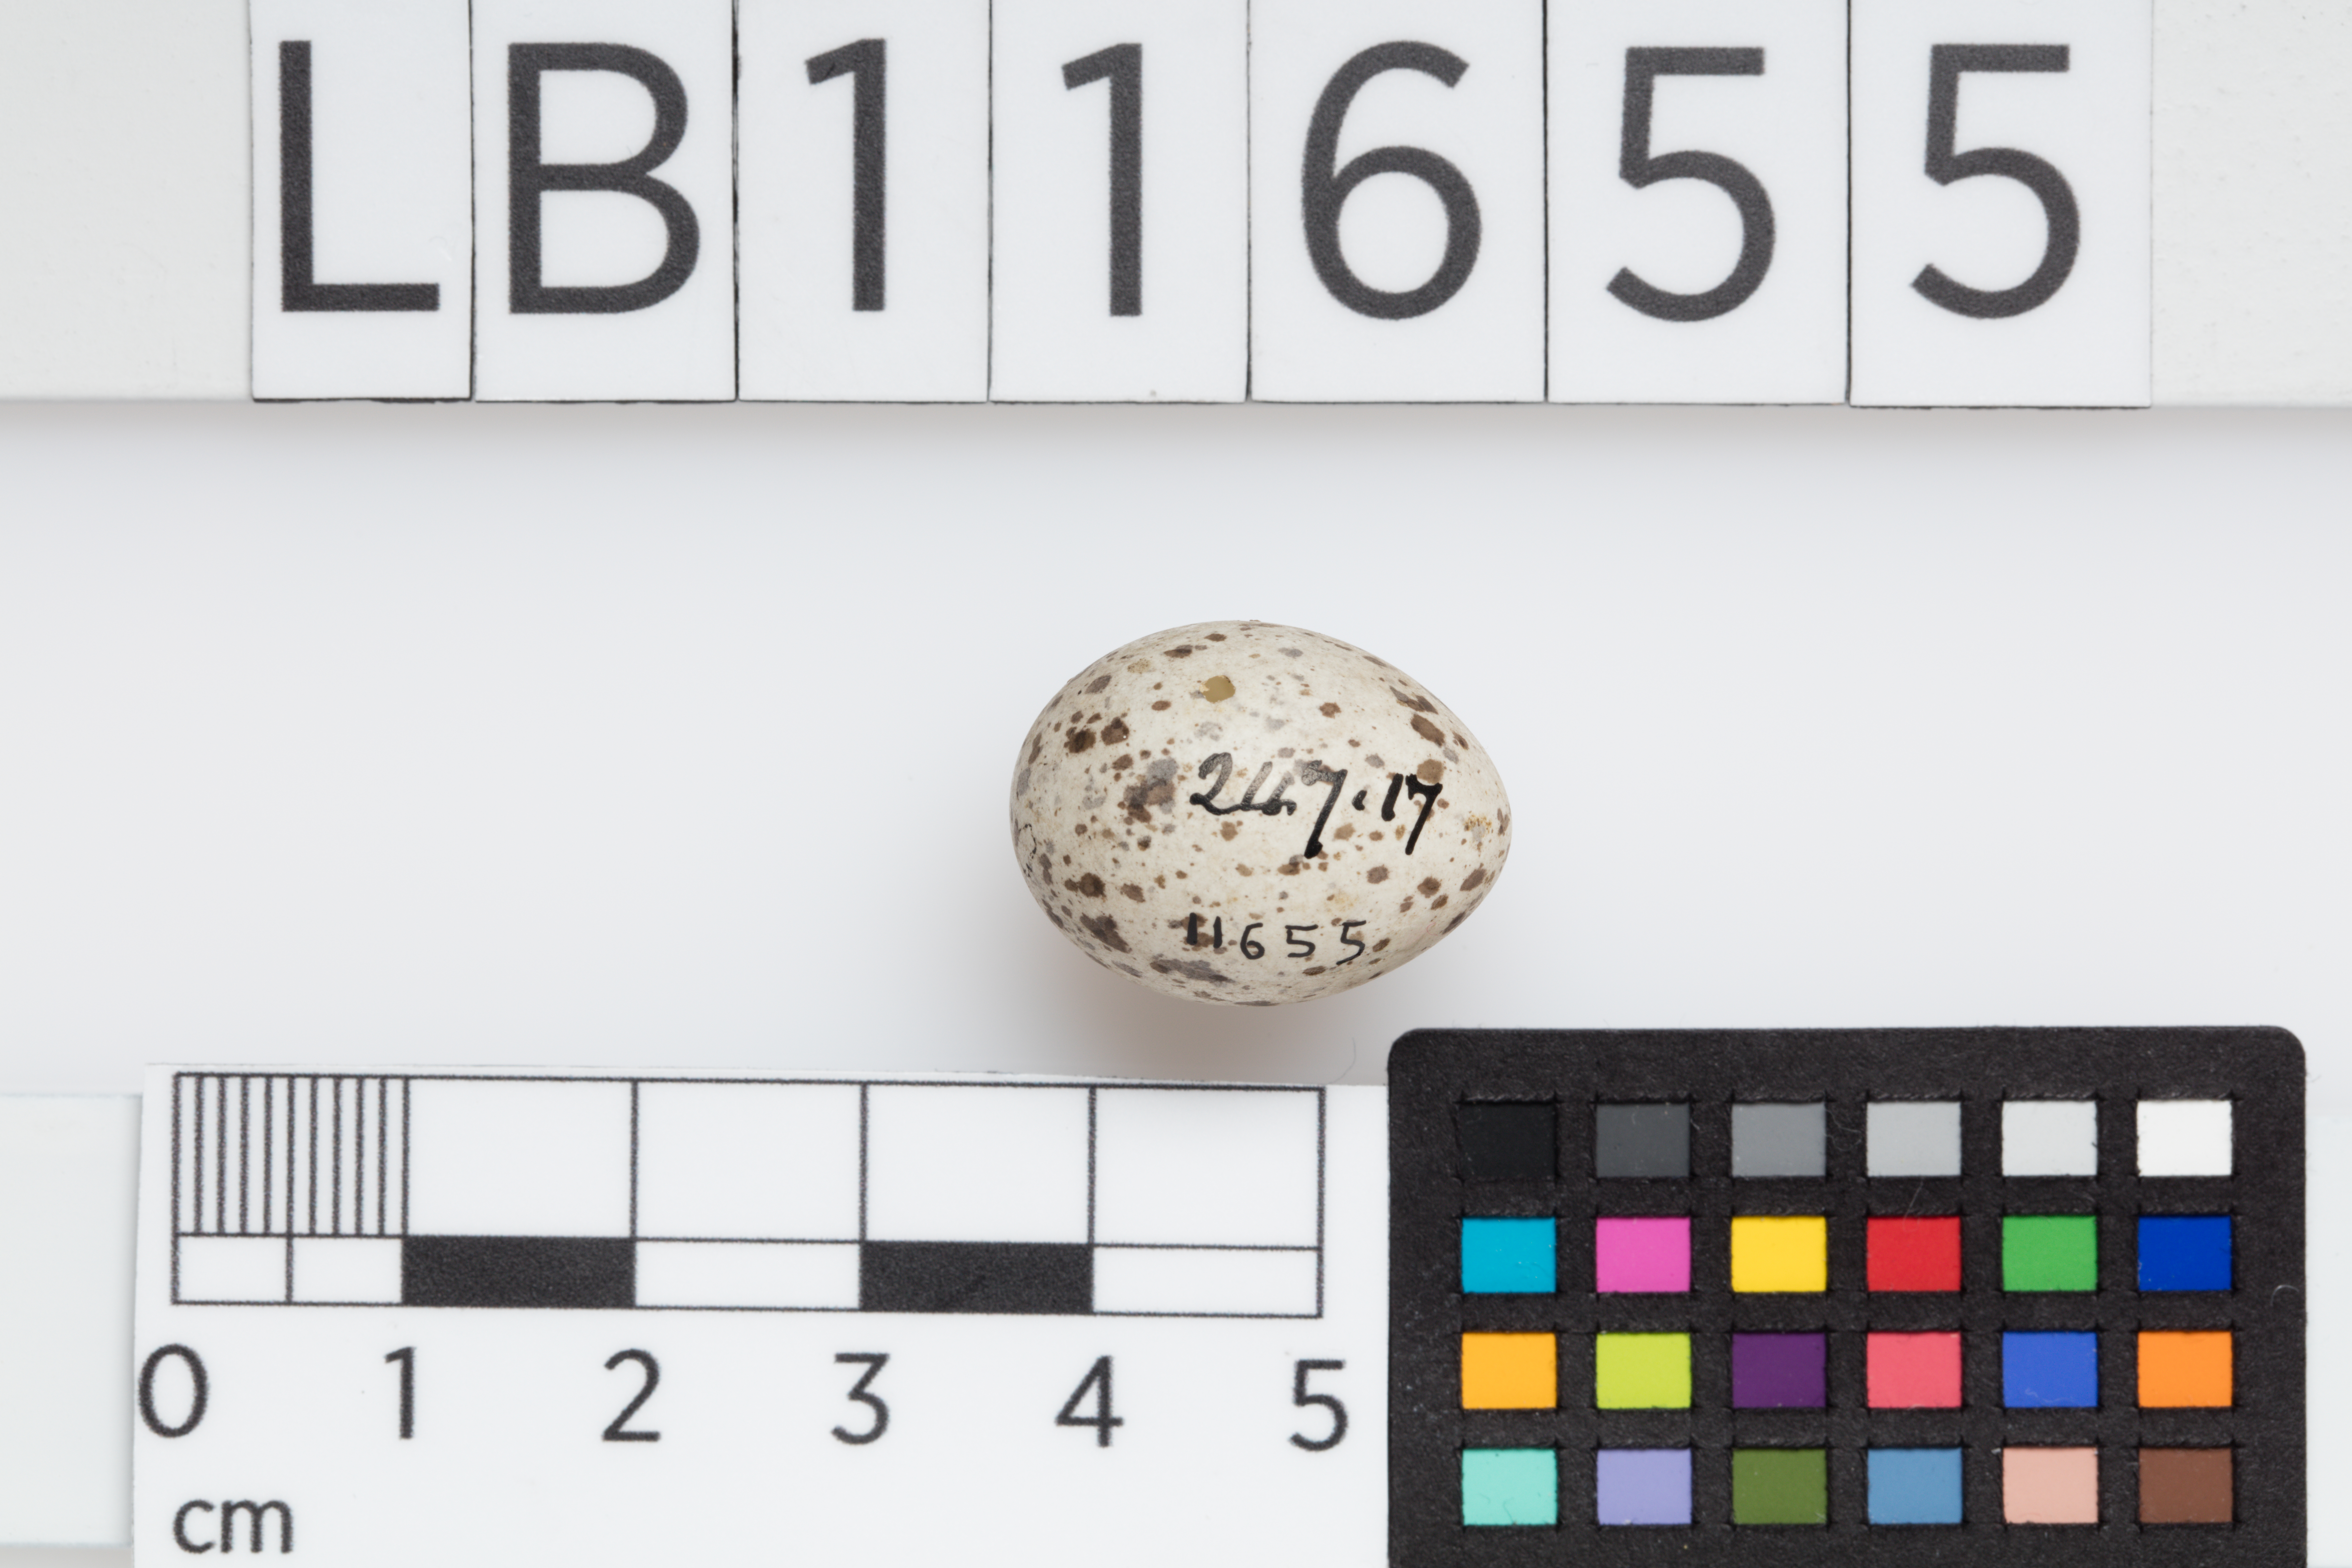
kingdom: Animalia
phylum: Chordata
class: Aves
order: Passeriformes
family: Passeridae
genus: Passer
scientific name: Passer domesticus
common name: House sparrow
